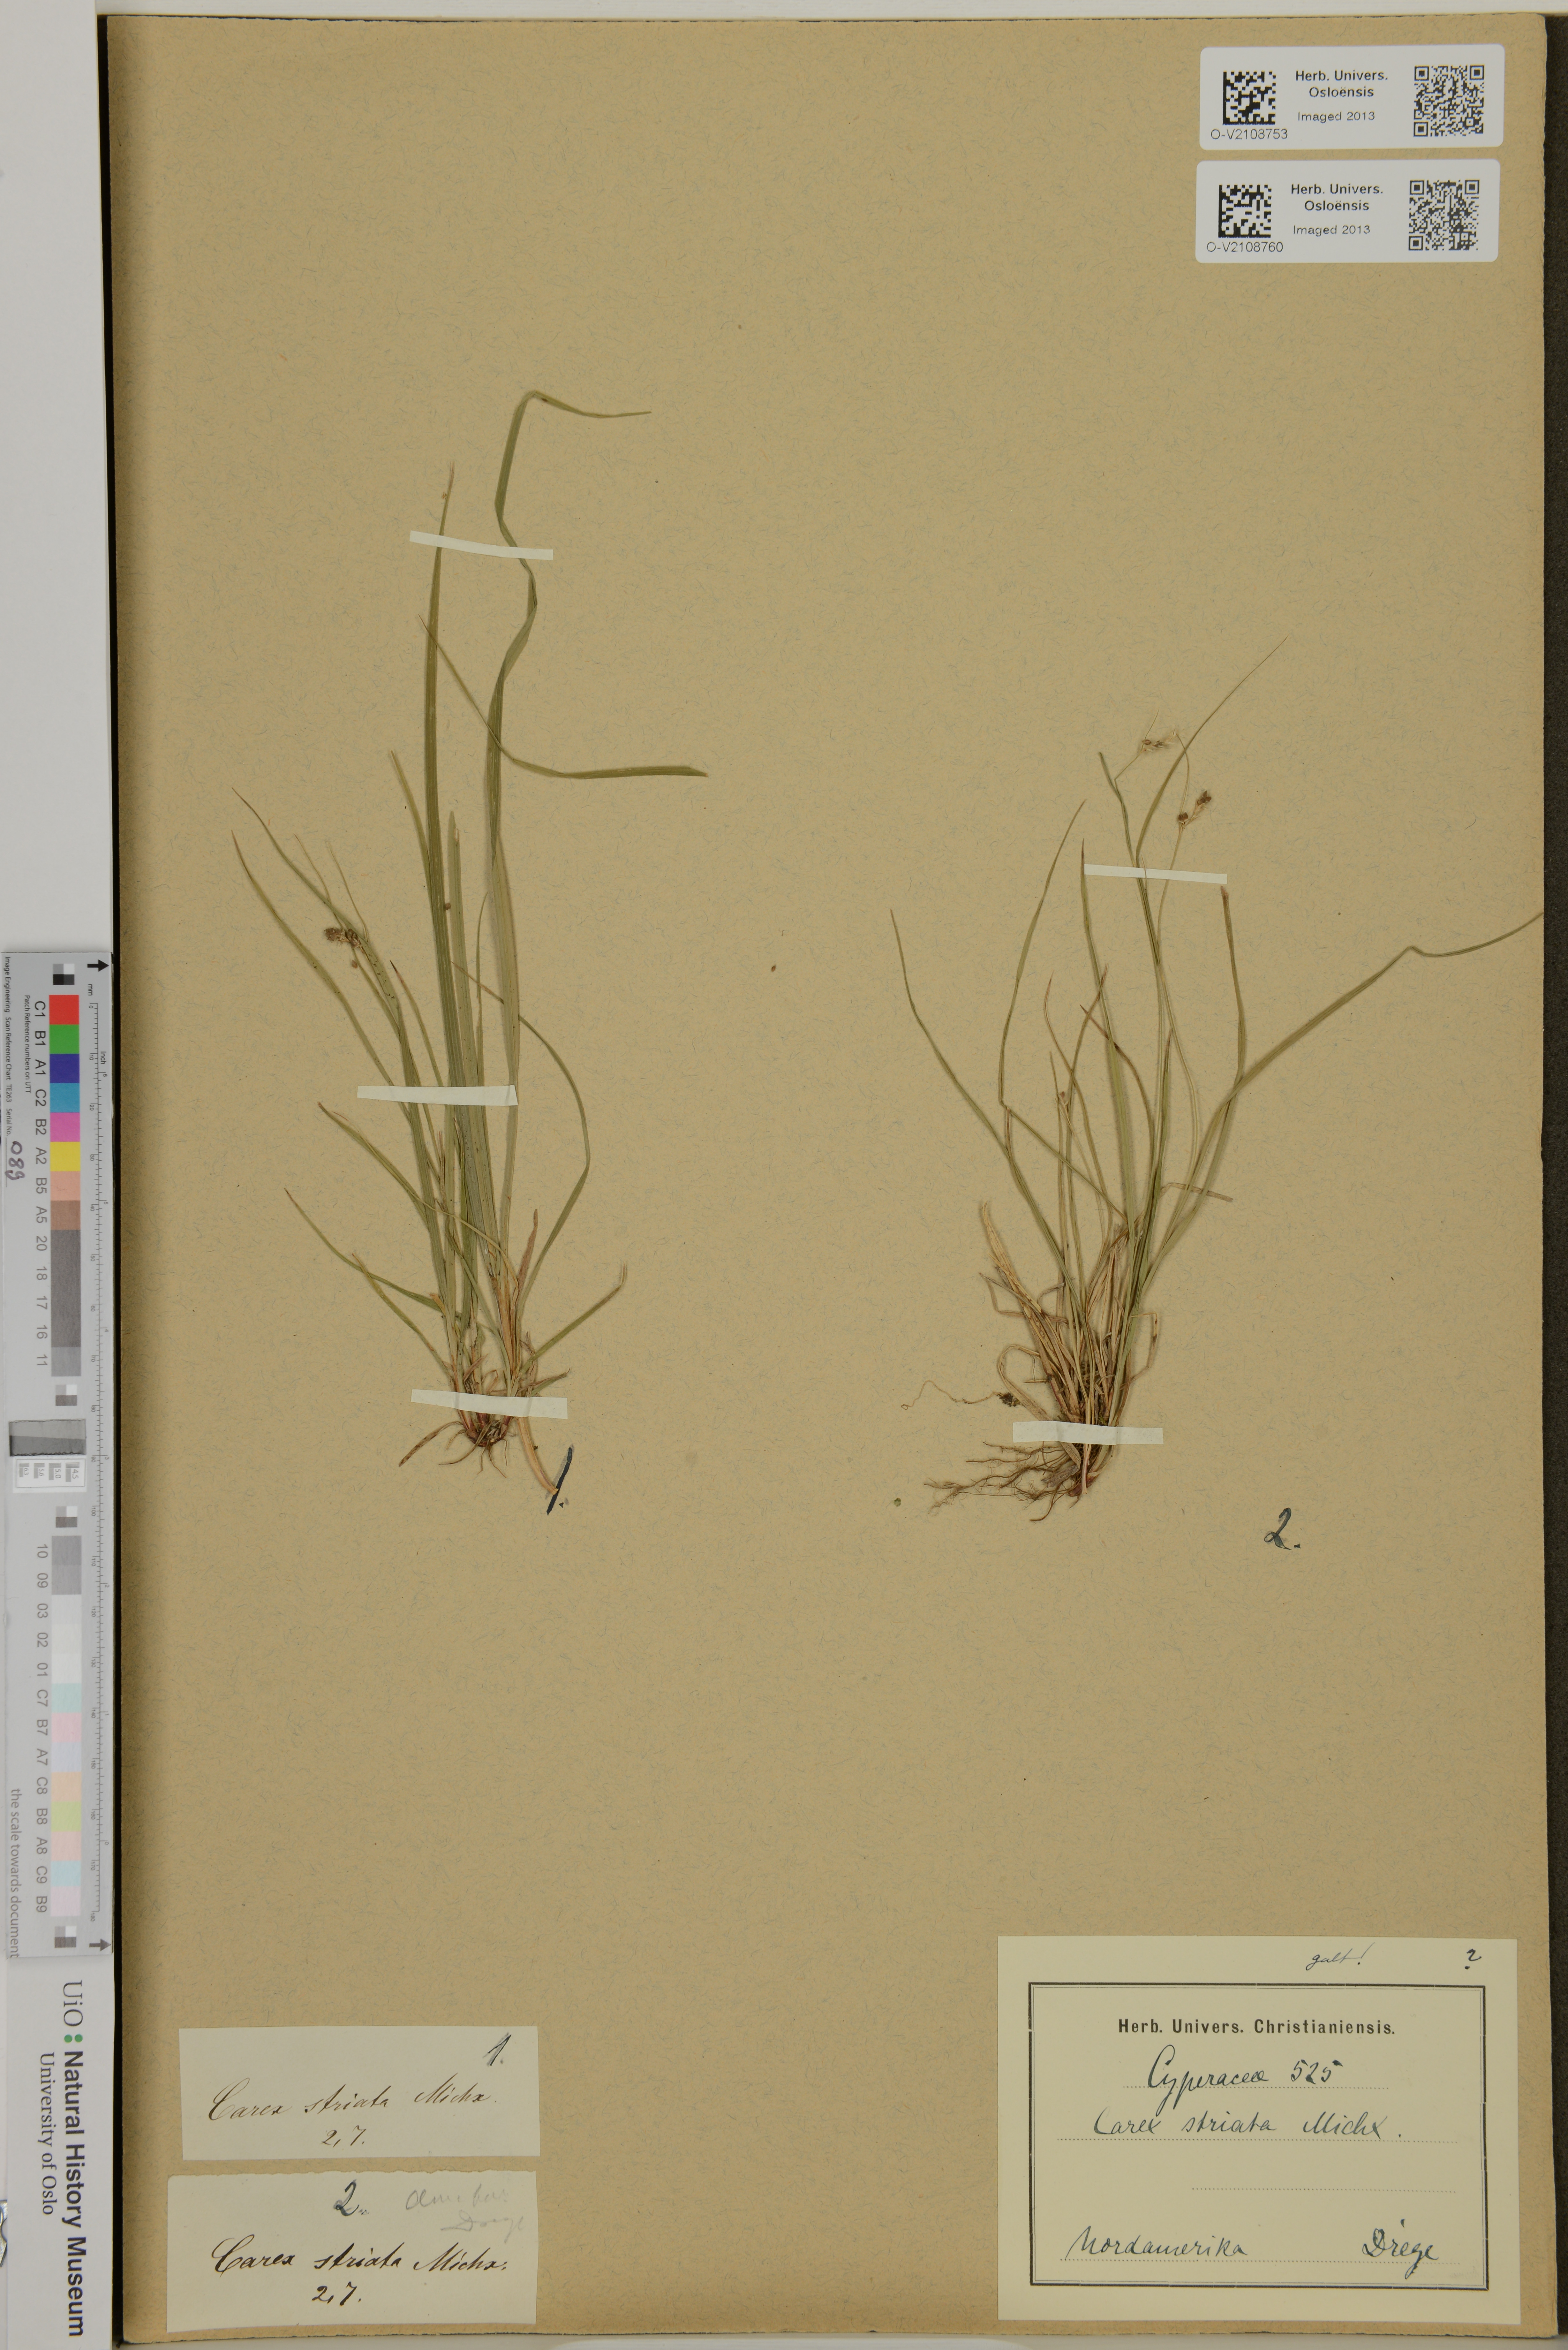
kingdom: Plantae
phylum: Tracheophyta
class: Liliopsida
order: Poales
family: Cyperaceae
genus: Carex
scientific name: Carex striata
